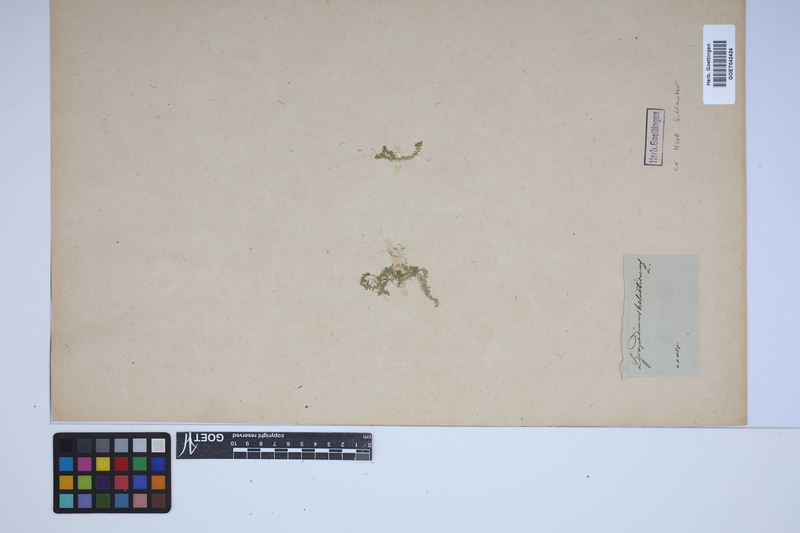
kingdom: Plantae
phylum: Tracheophyta
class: Lycopodiopsida
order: Selaginellales
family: Selaginellaceae
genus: Selaginella
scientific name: Selaginella helvetica
